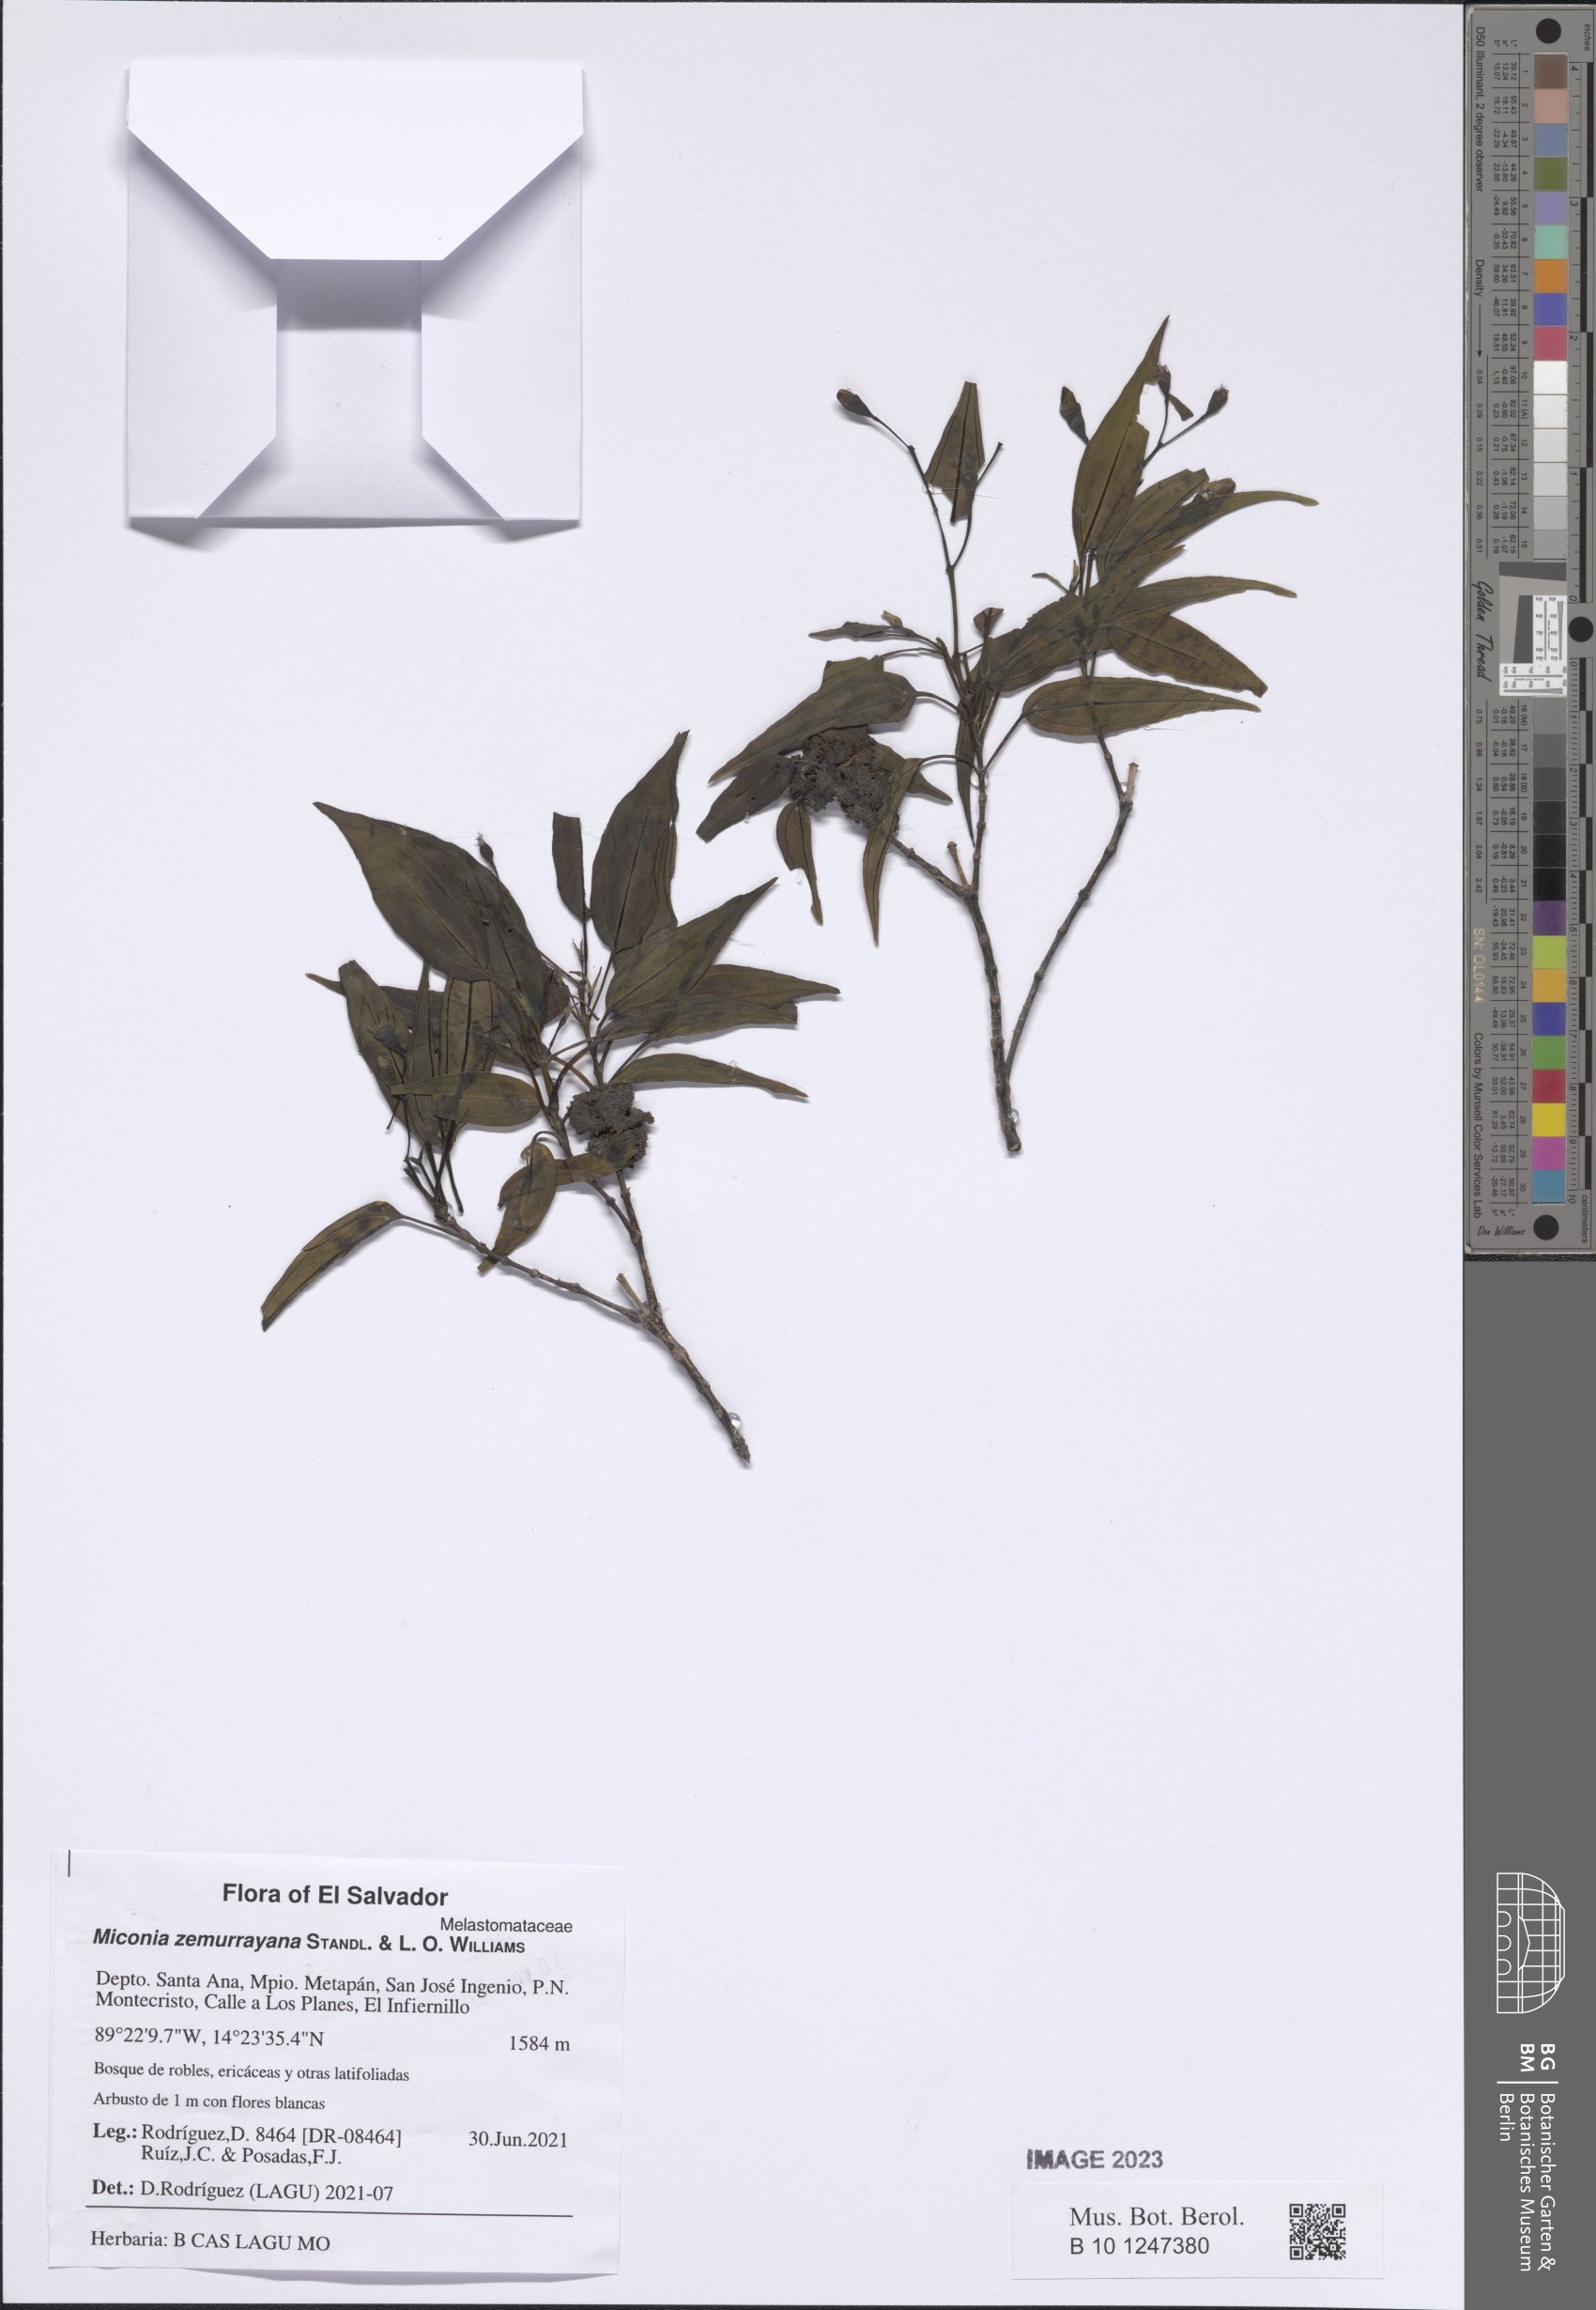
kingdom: Plantae
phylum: Tracheophyta
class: Magnoliopsida
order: Myrtales
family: Melastomataceae
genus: Miconia
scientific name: Miconia zemurrayana
